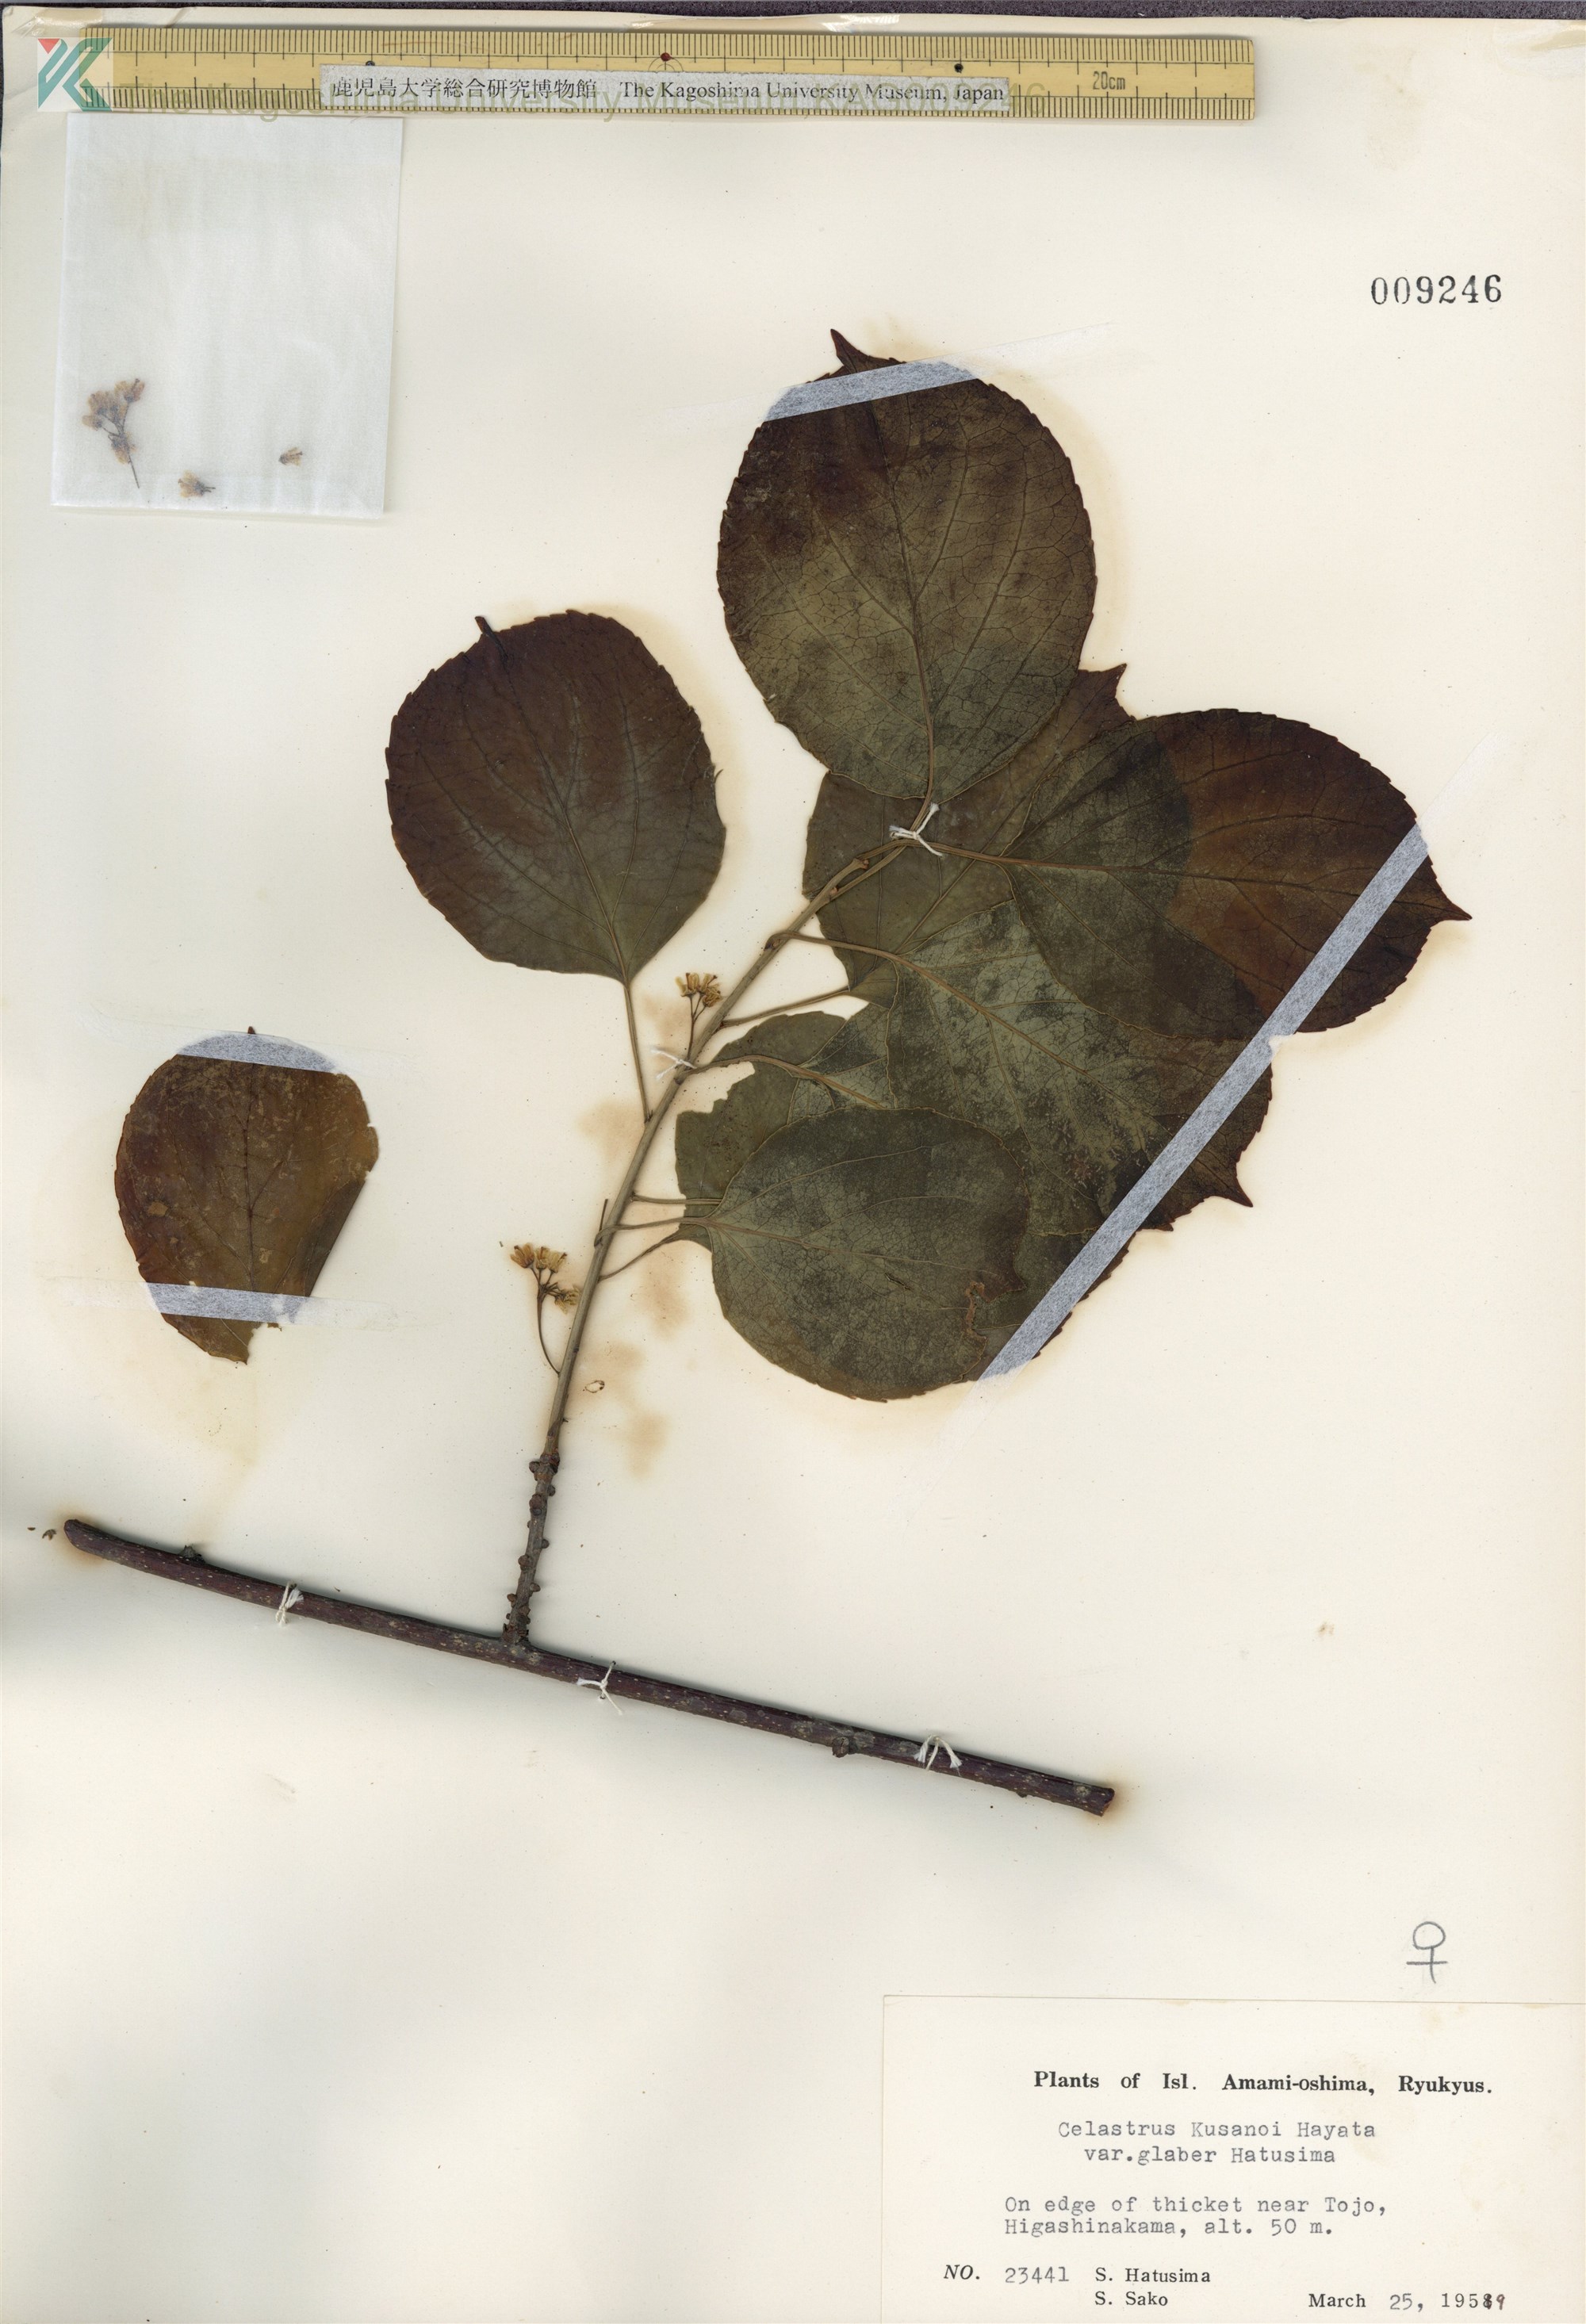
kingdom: Plantae
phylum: Tracheophyta
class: Magnoliopsida
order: Celastrales
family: Celastraceae
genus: Celastrus
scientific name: Celastrus hypoleucus
